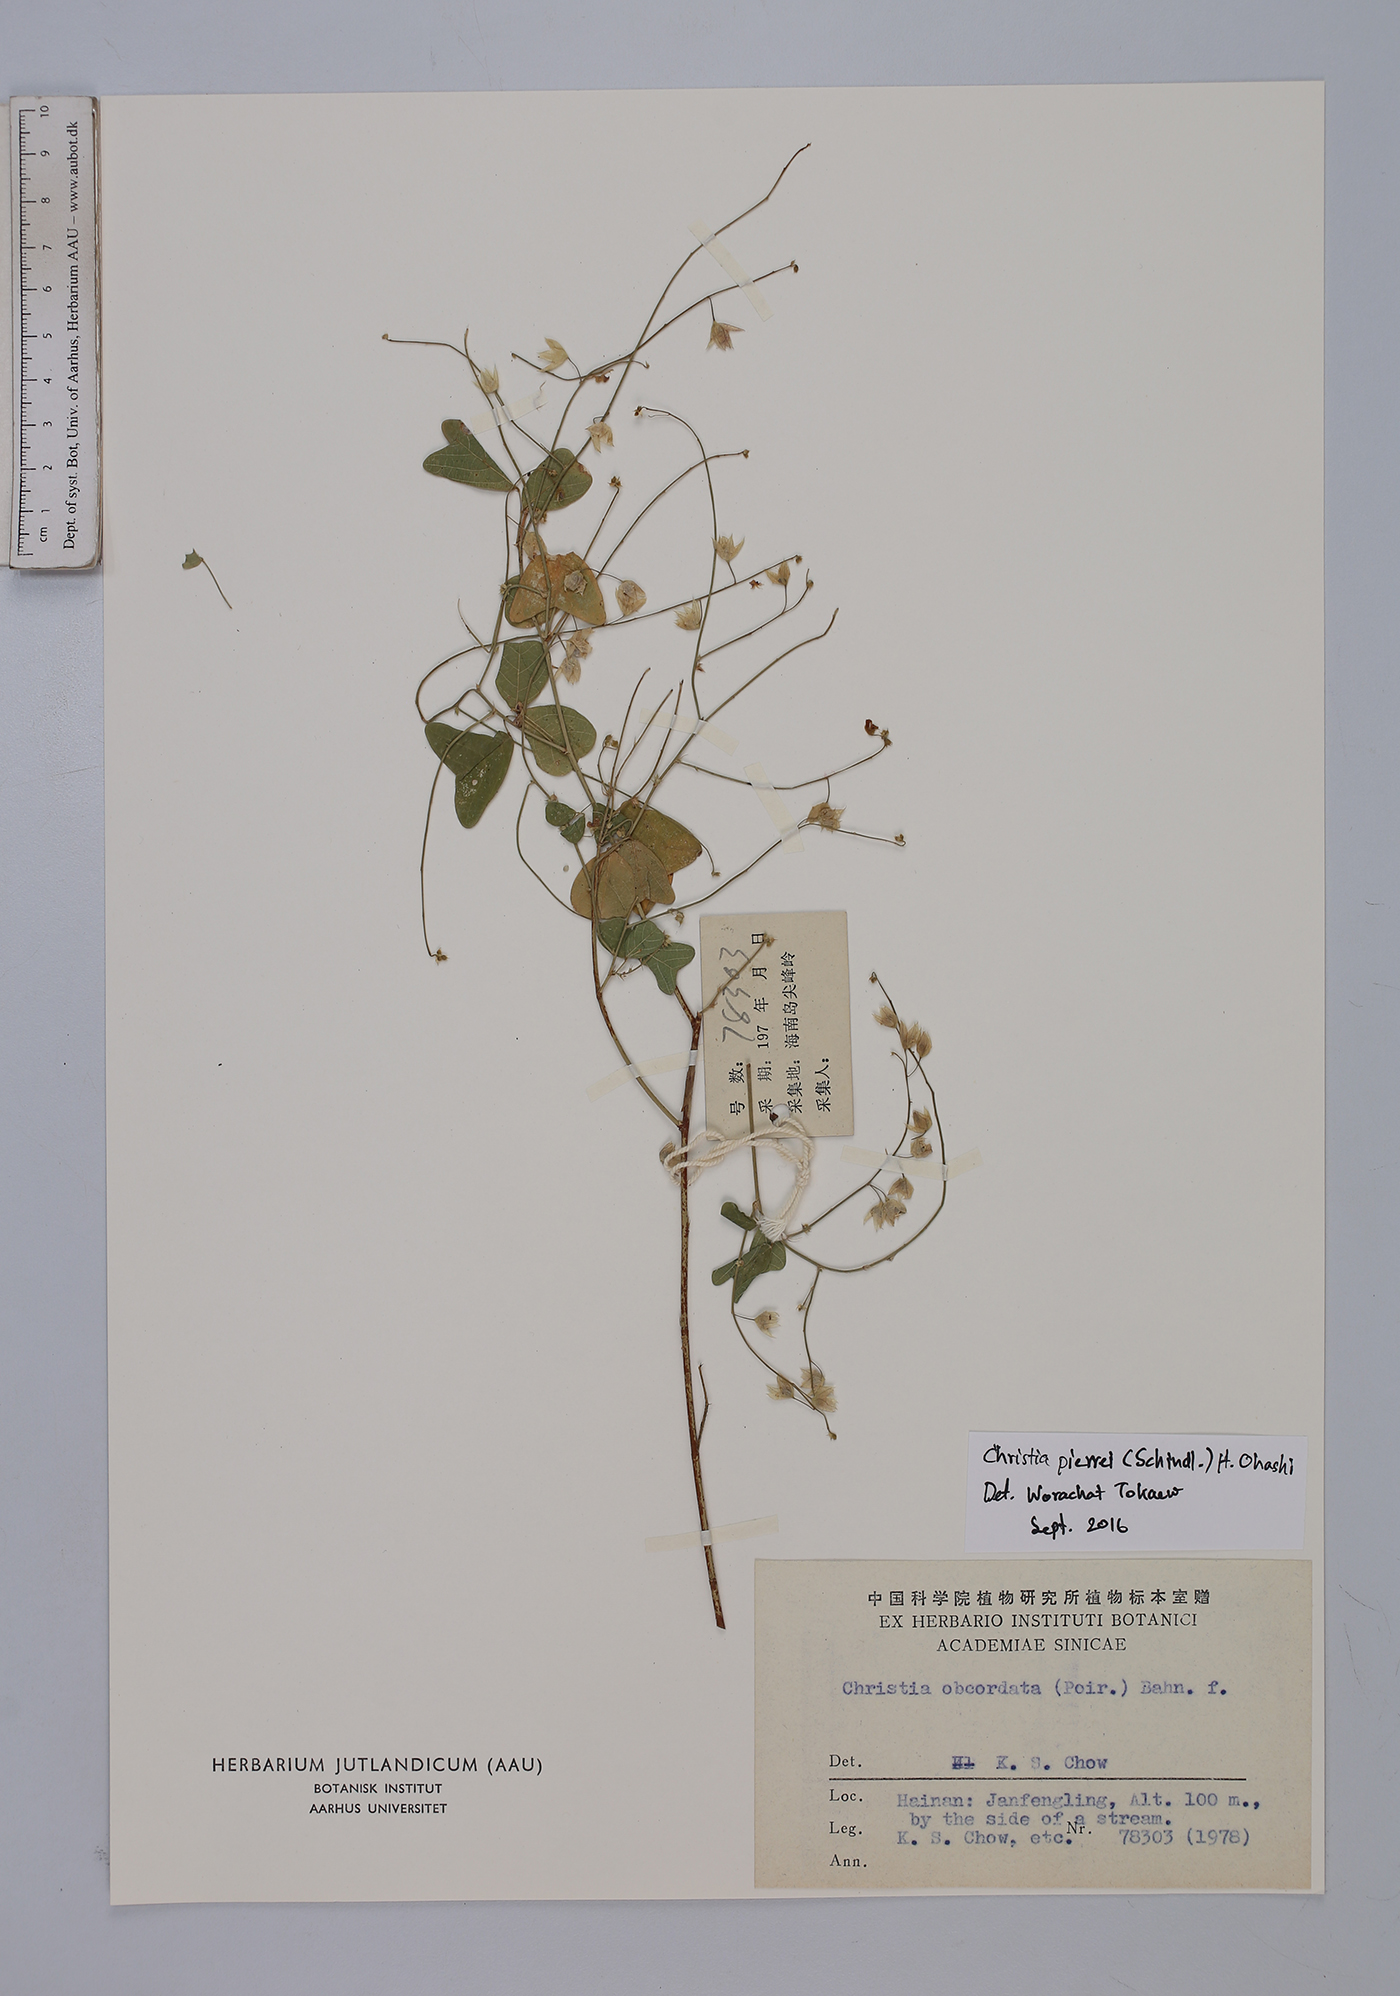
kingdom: Plantae
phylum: Tracheophyta
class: Magnoliopsida
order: Fabales
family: Fabaceae
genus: Christia
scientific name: Christia pierrei
